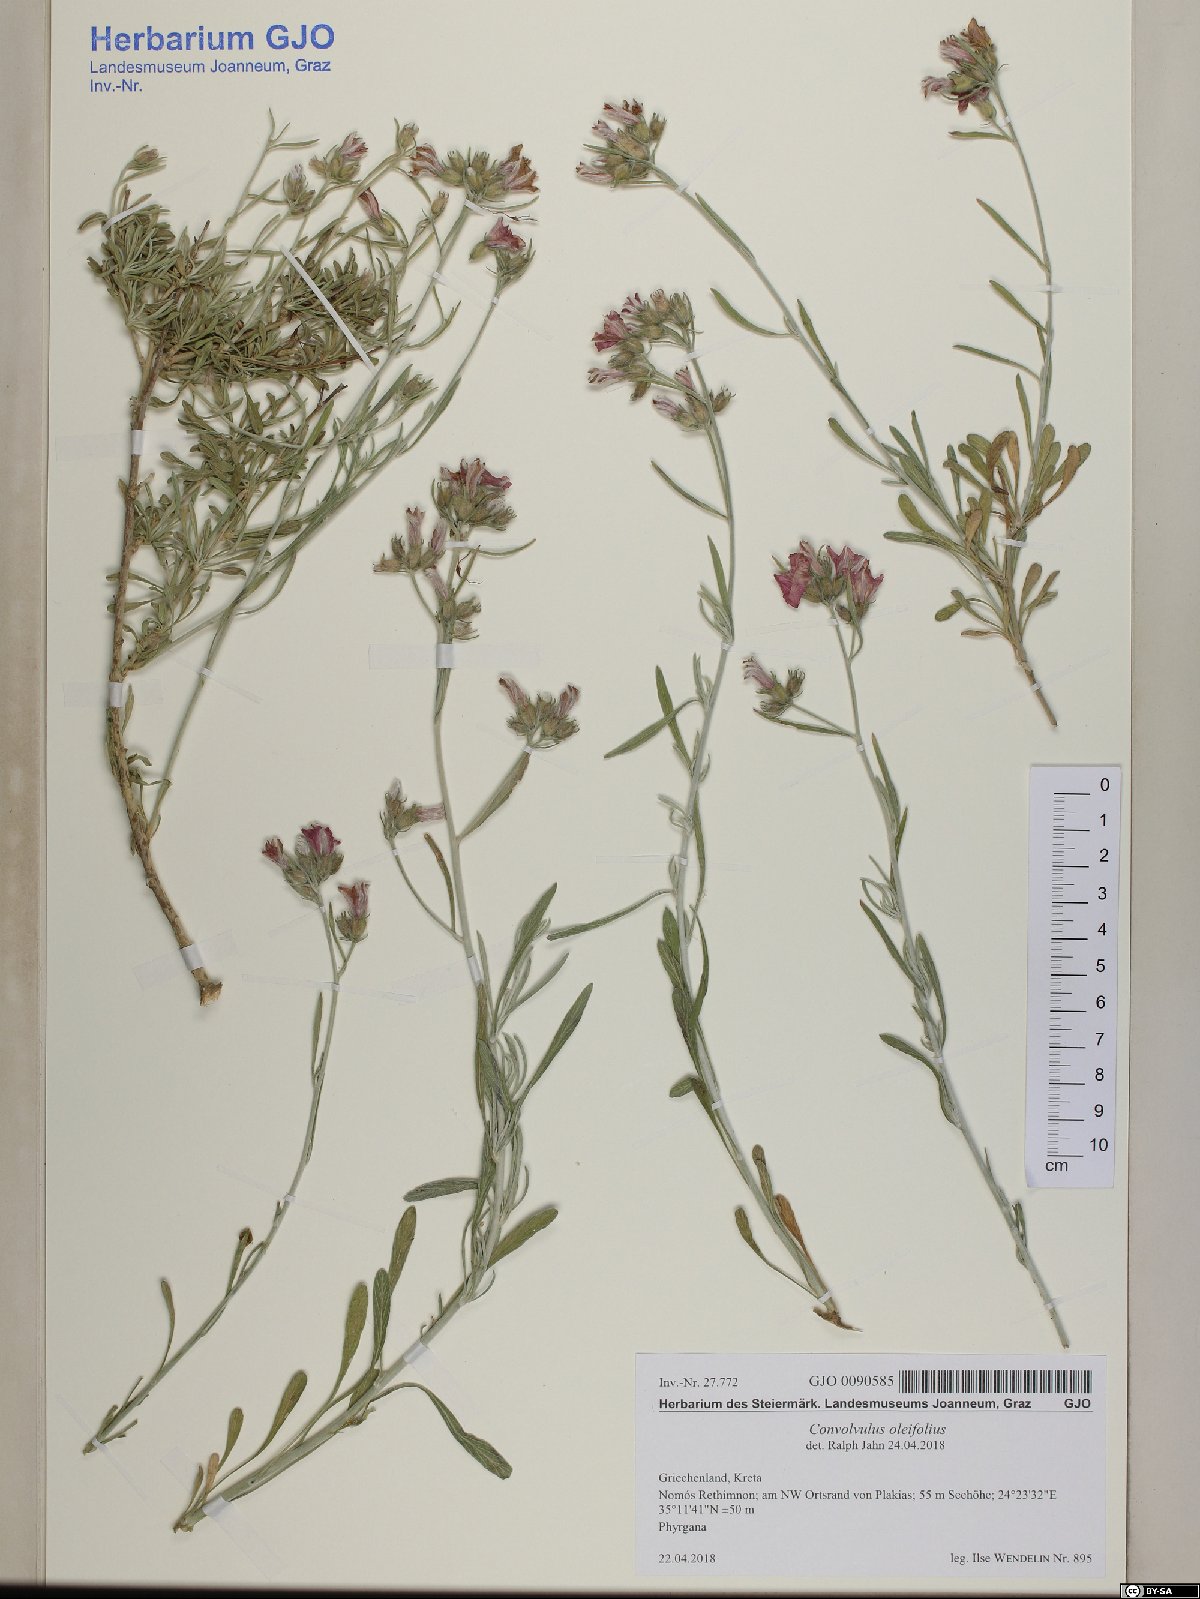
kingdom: Plantae
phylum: Tracheophyta
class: Magnoliopsida
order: Solanales
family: Convolvulaceae
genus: Convolvulus
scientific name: Convolvulus oleifolius
